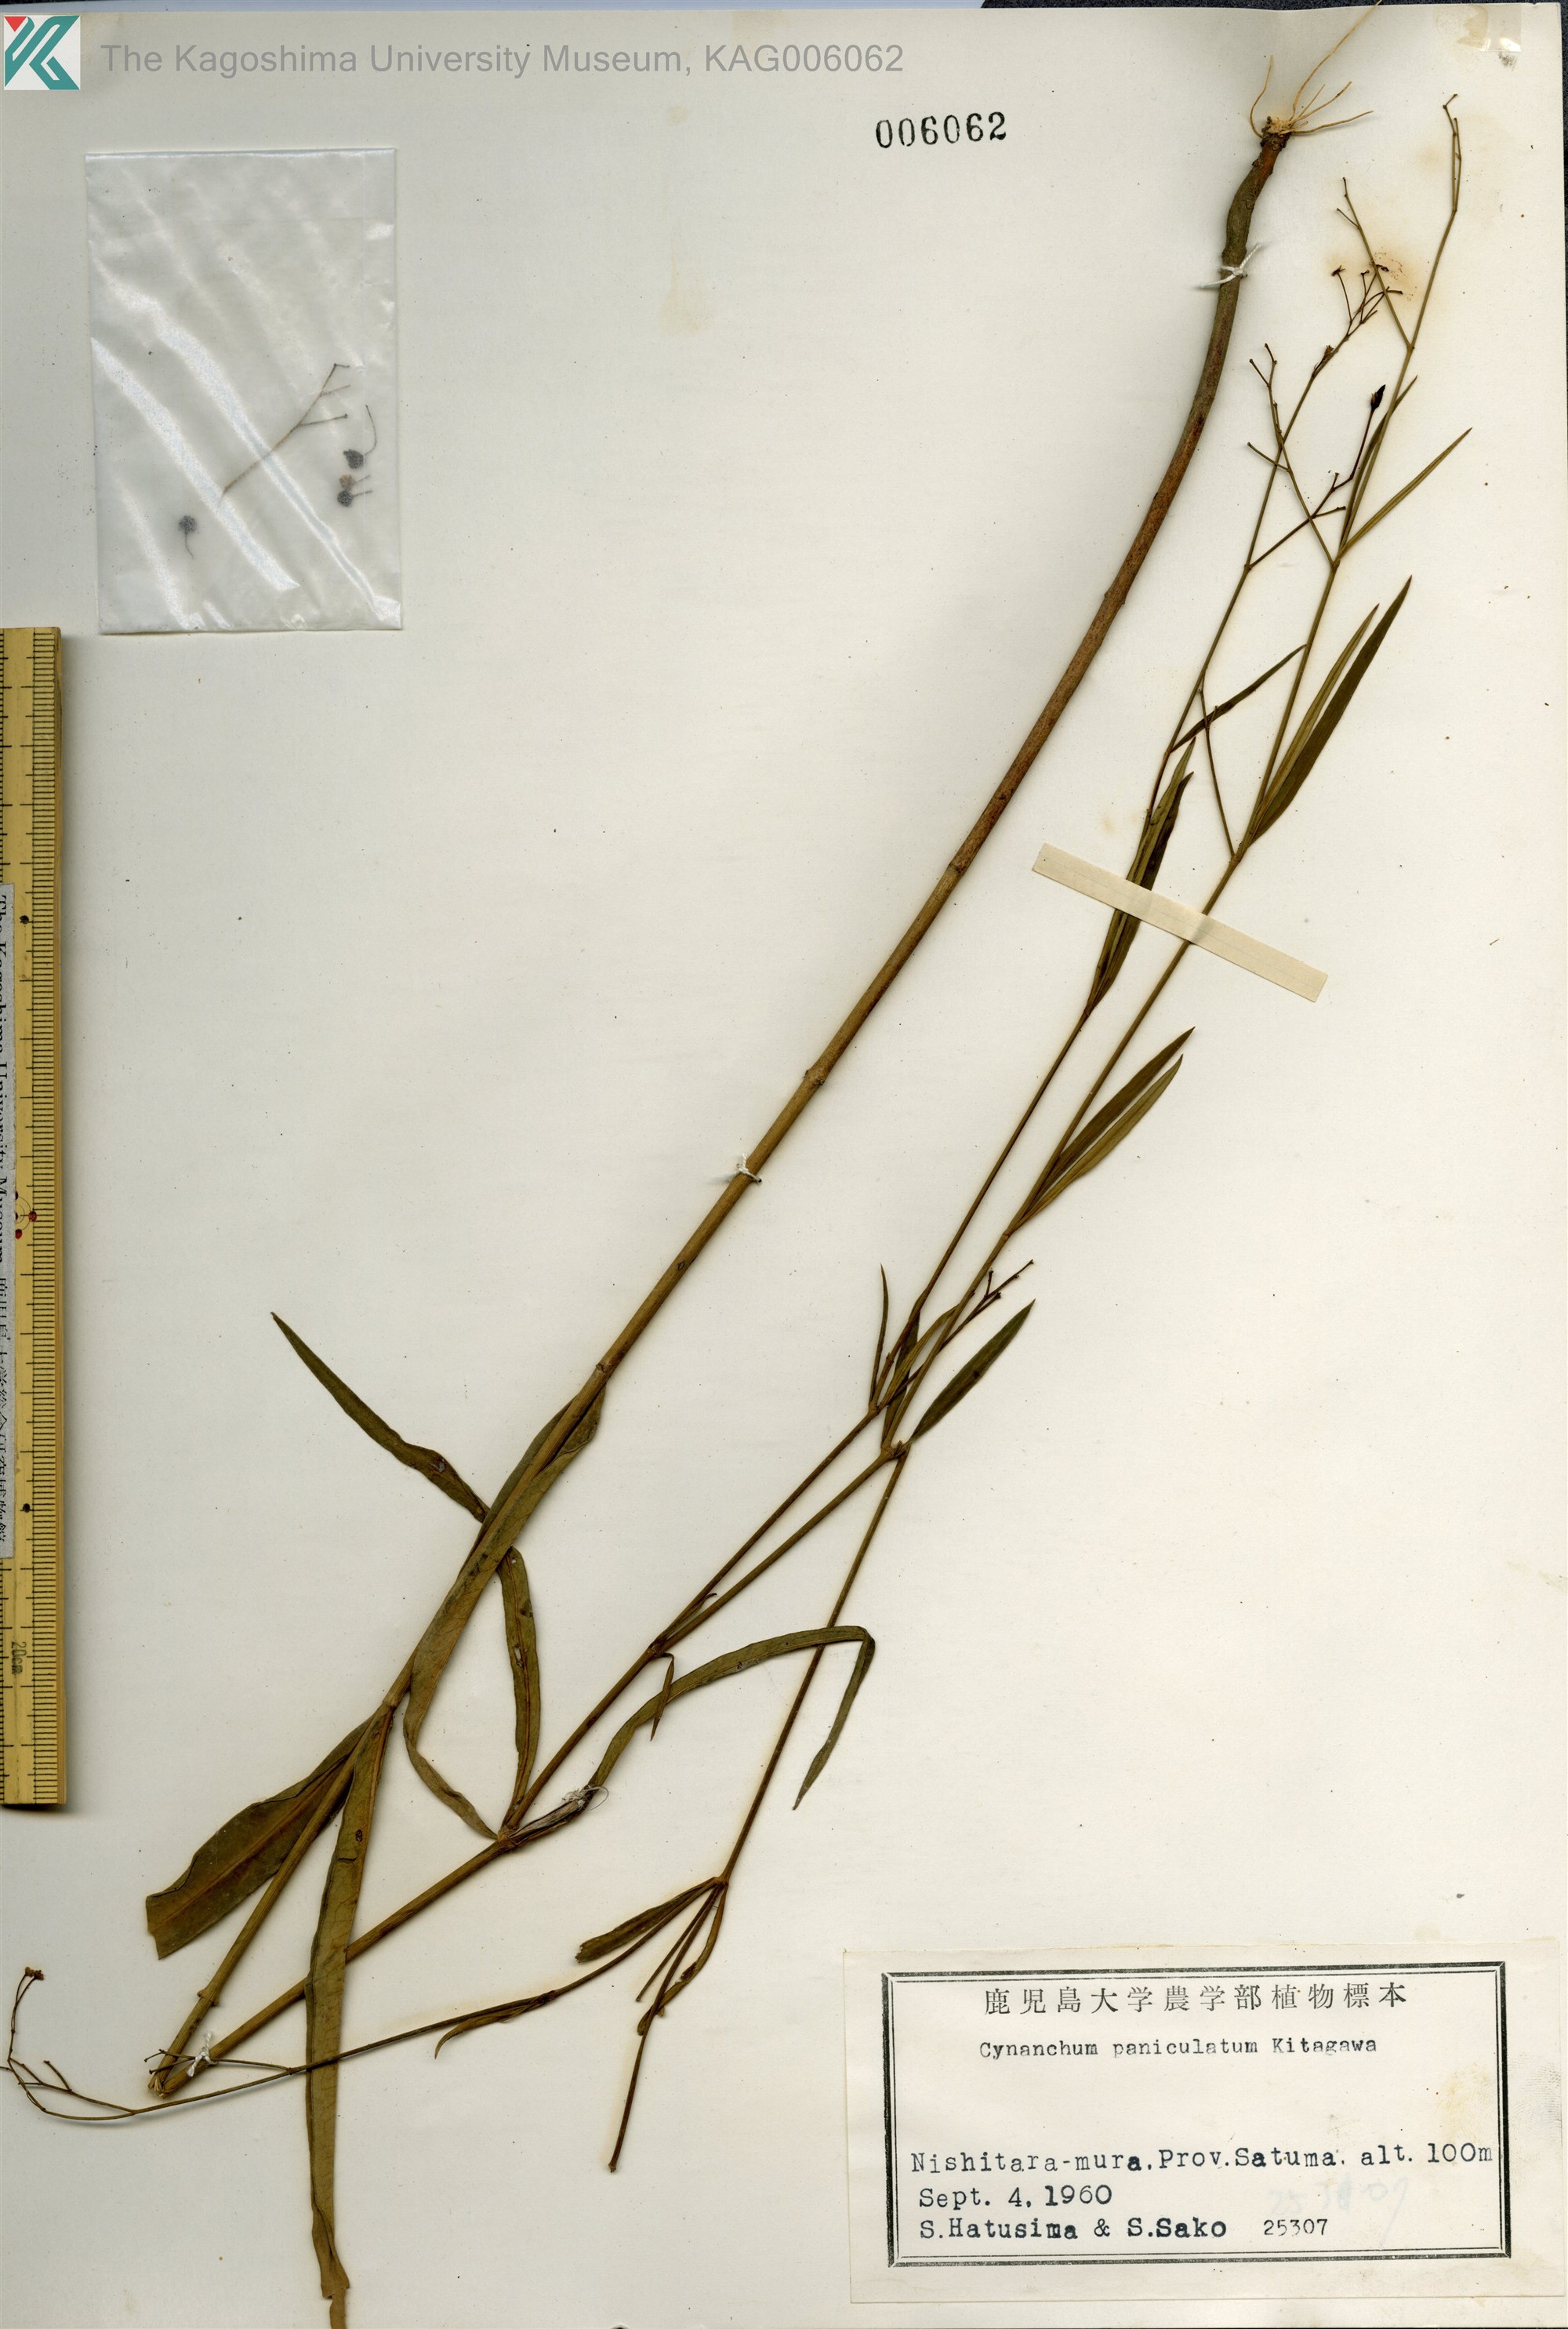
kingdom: Plantae
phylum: Tracheophyta
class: Magnoliopsida
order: Gentianales
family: Apocynaceae
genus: Vincetoxicum
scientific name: Vincetoxicum mukdenense
